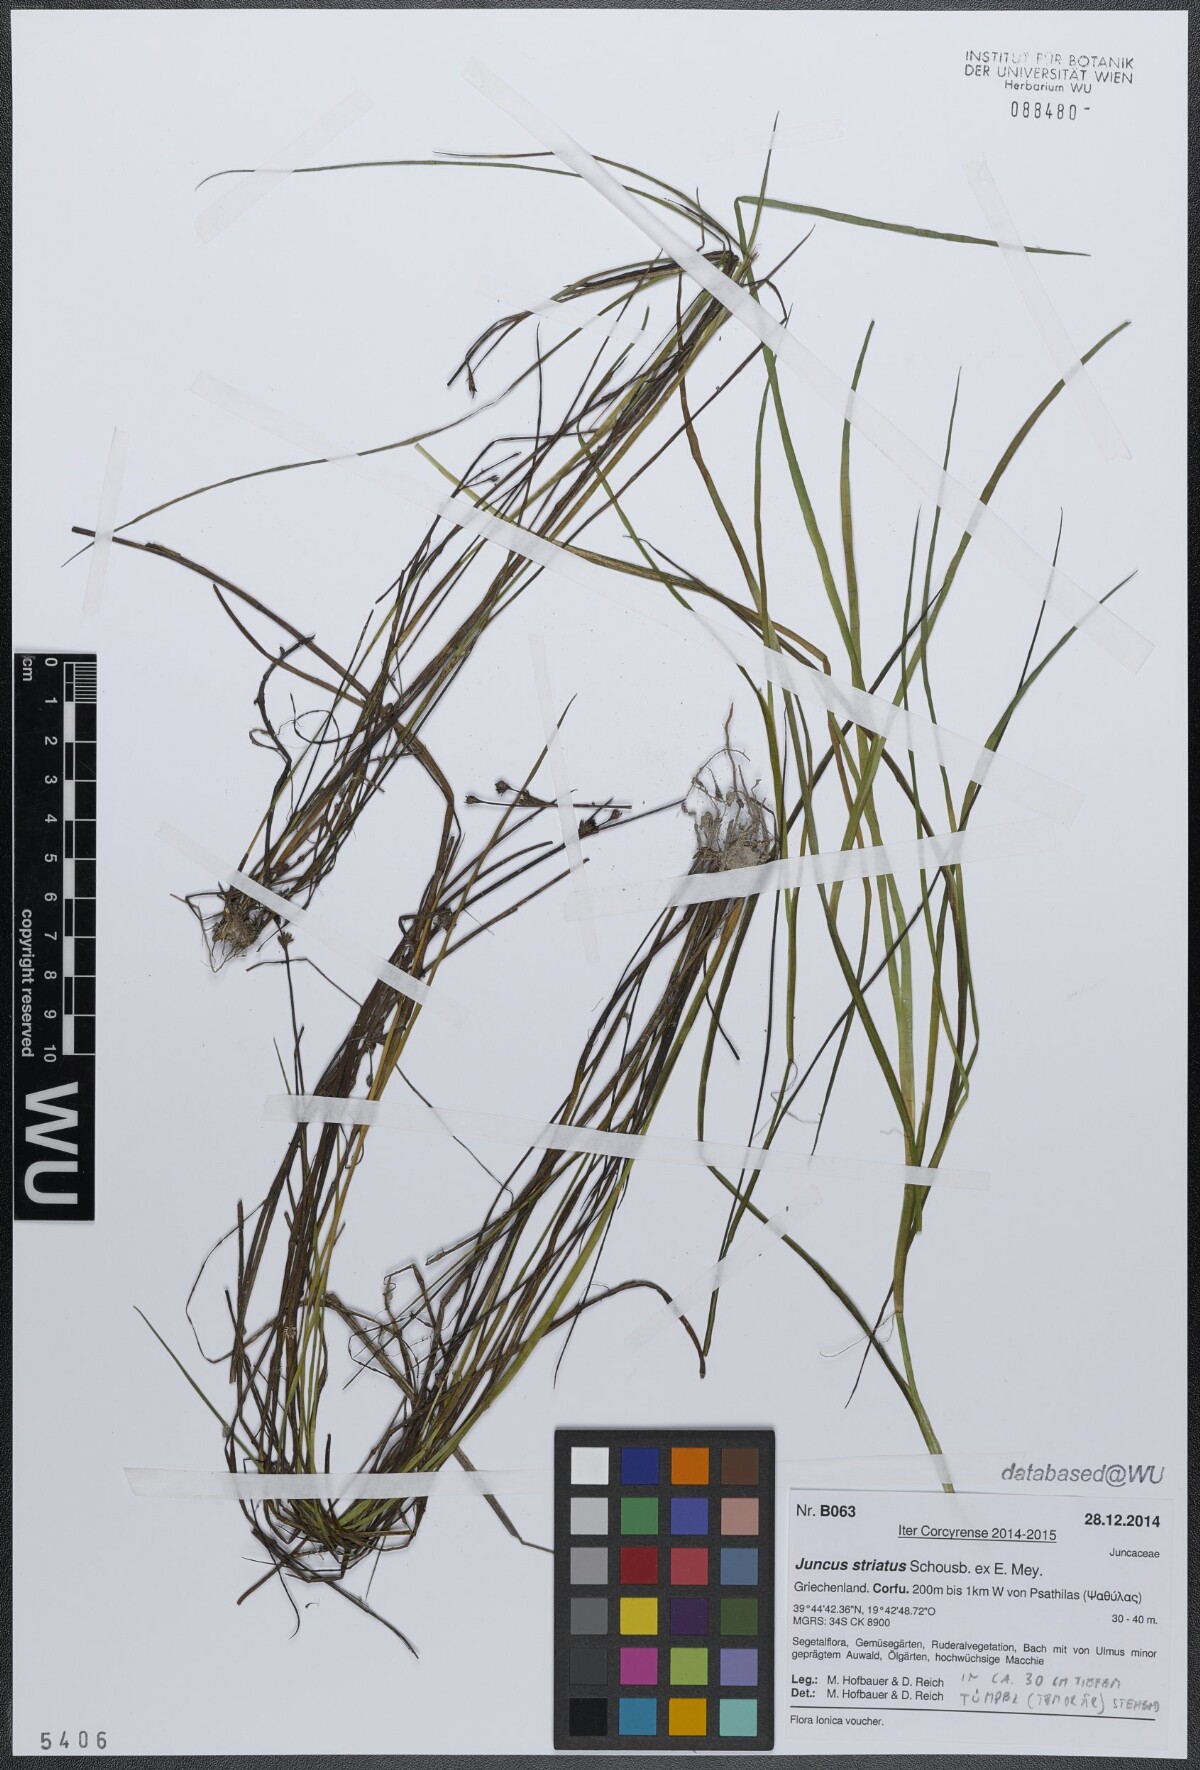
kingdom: Plantae
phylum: Tracheophyta
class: Liliopsida
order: Poales
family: Juncaceae
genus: Juncus
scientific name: Juncus striatus
